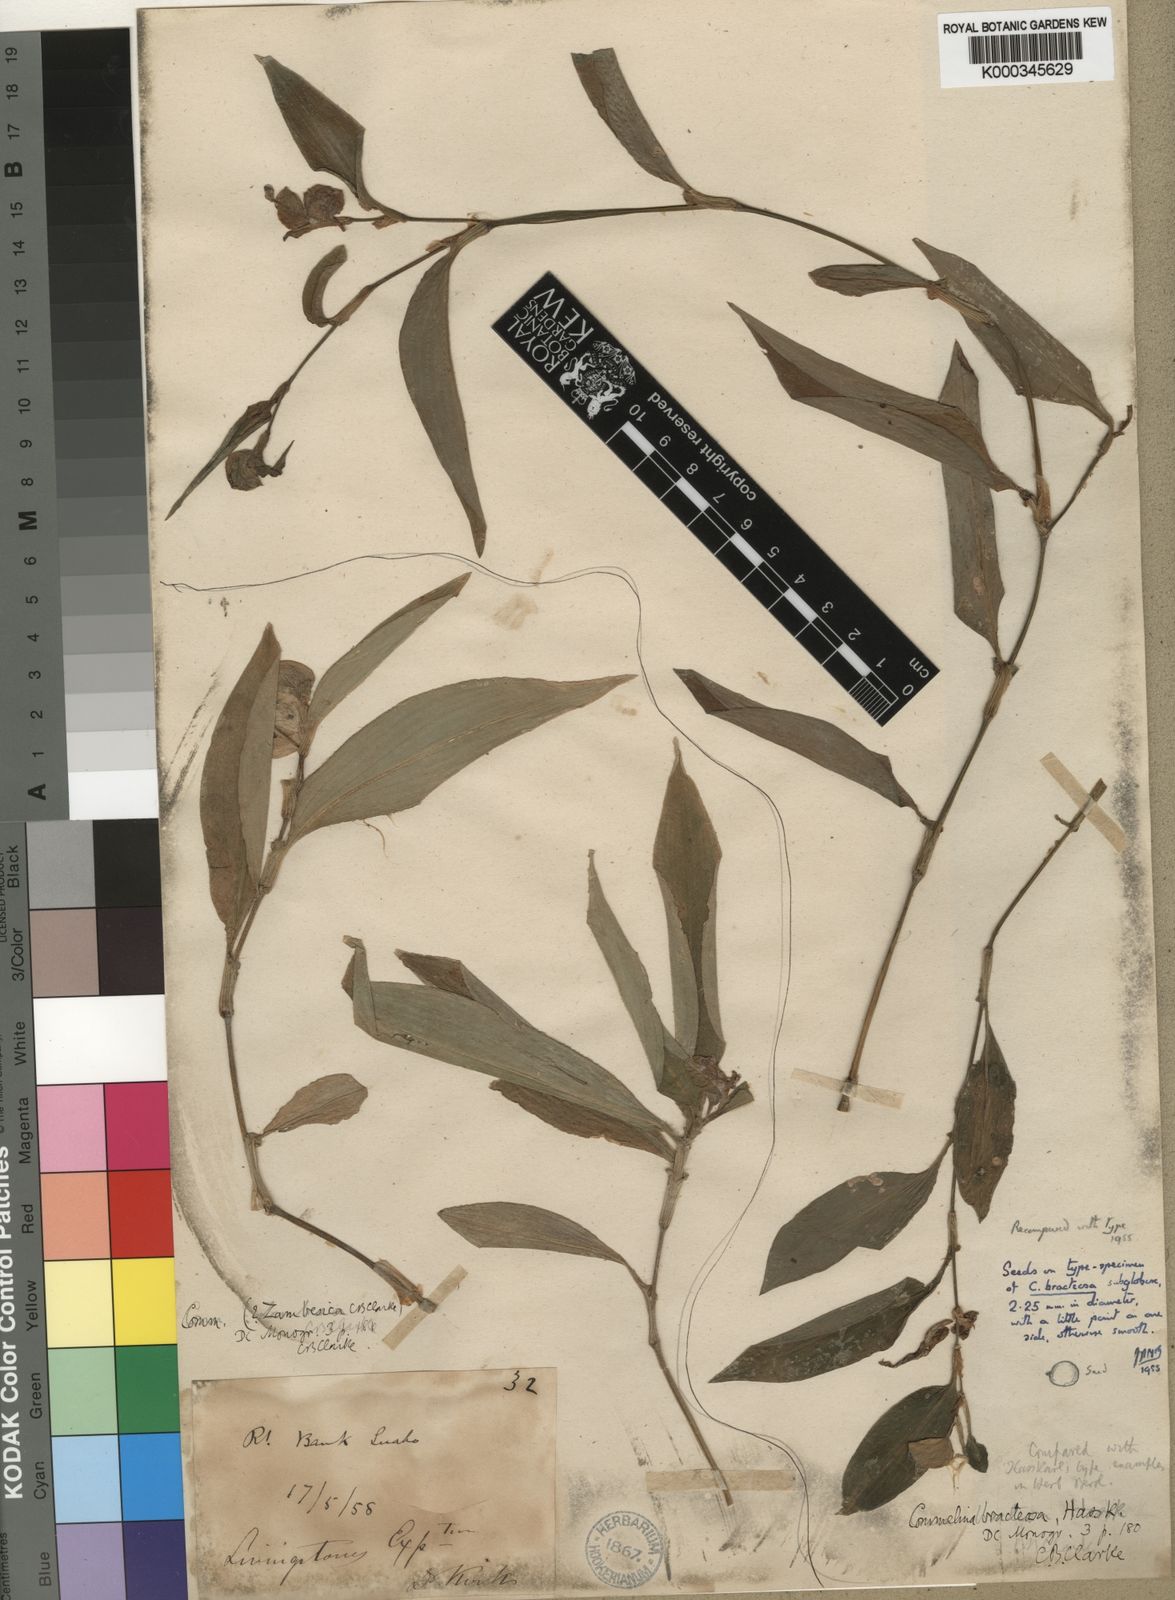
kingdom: Plantae
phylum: Tracheophyta
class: Liliopsida
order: Commelinales
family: Commelinaceae
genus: Commelina
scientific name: Commelina bracteosa
